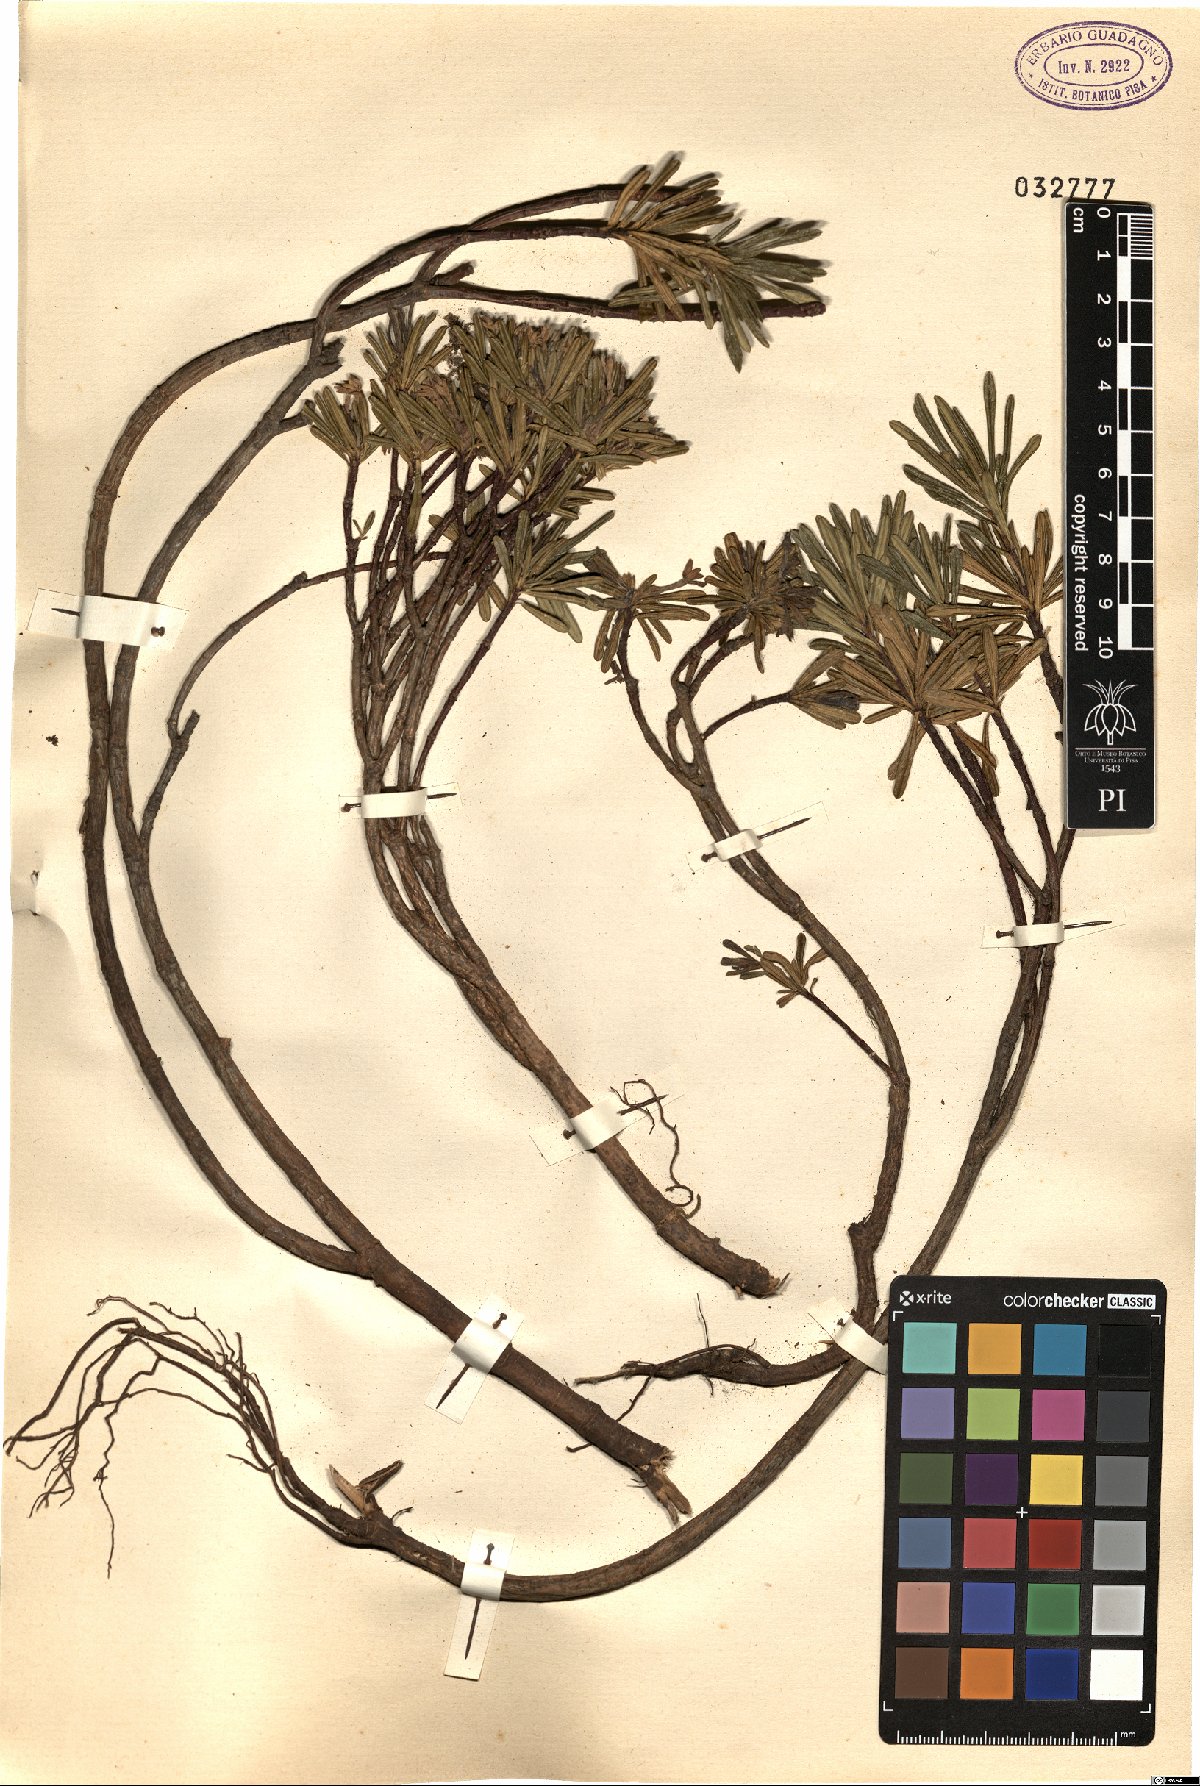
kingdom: Plantae
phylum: Tracheophyta
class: Magnoliopsida
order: Malvales
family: Thymelaeaceae
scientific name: Thymelaeaceae
